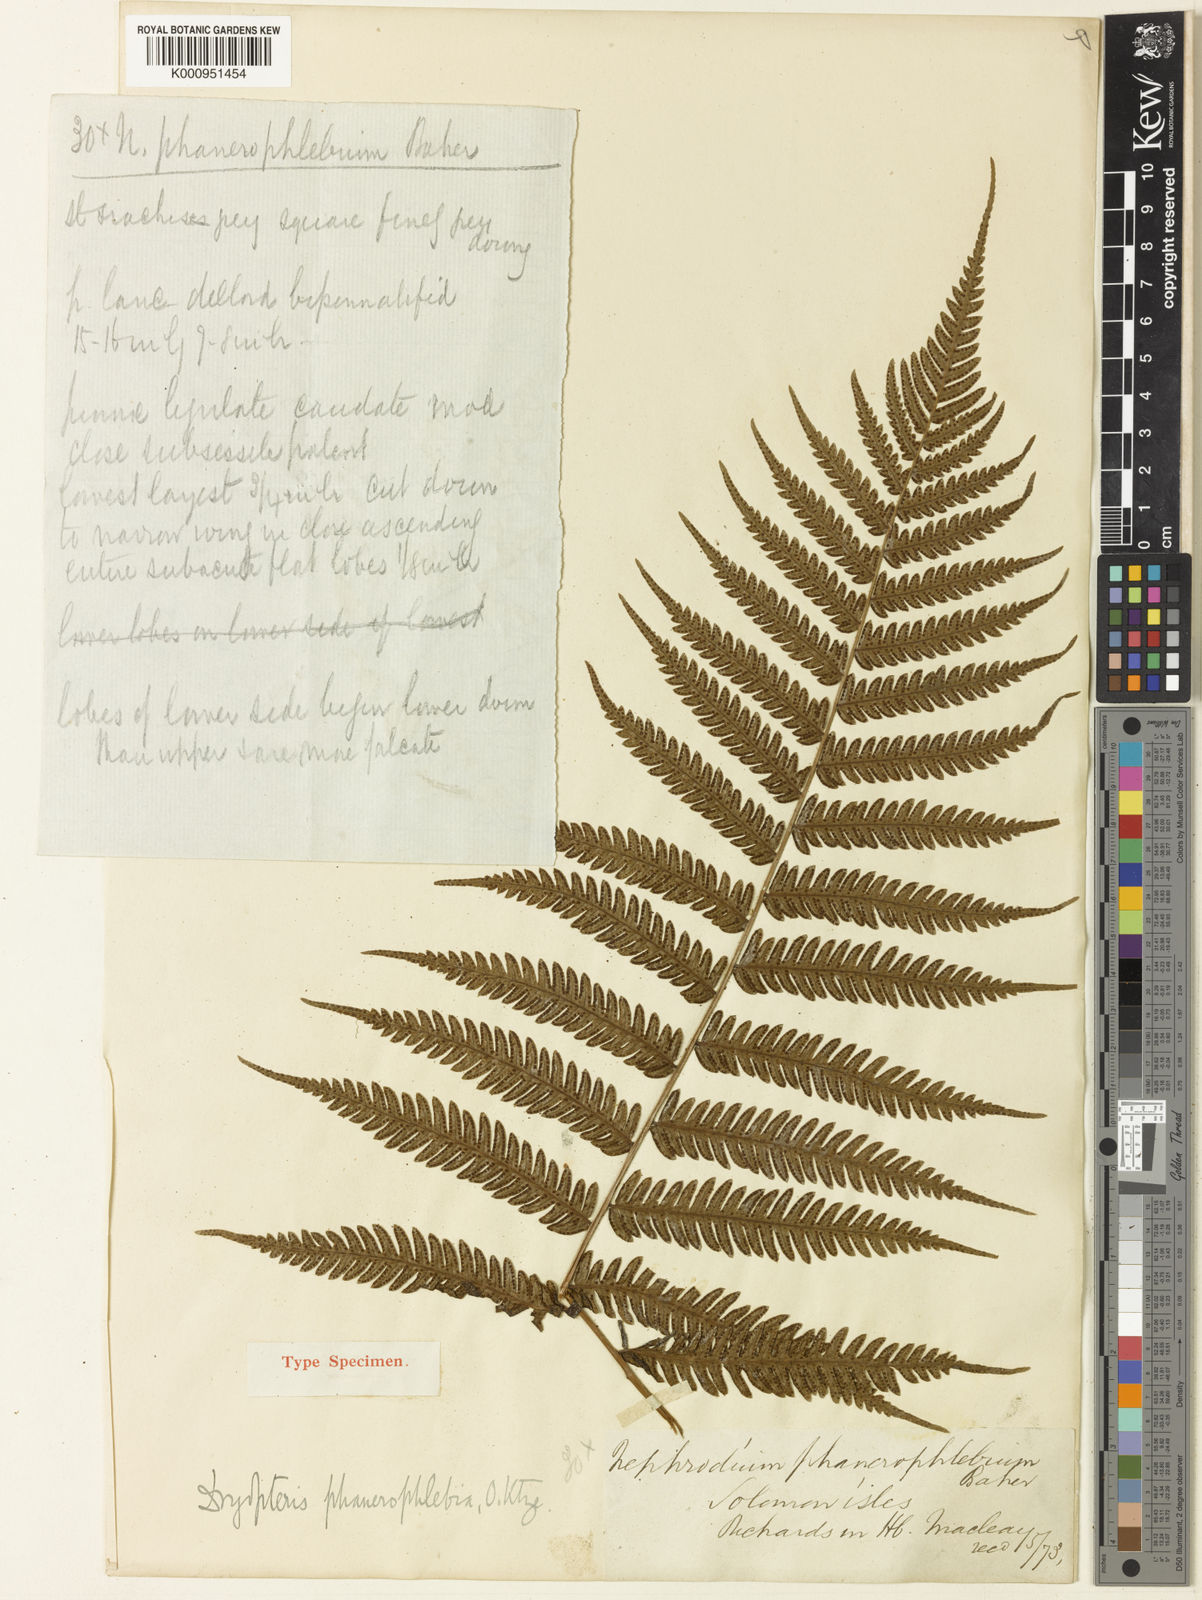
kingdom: Plantae
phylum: Tracheophyta
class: Polypodiopsida
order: Polypodiales
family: Thelypteridaceae
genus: Plesioneuron
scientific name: Plesioneuron phanerophlebium
